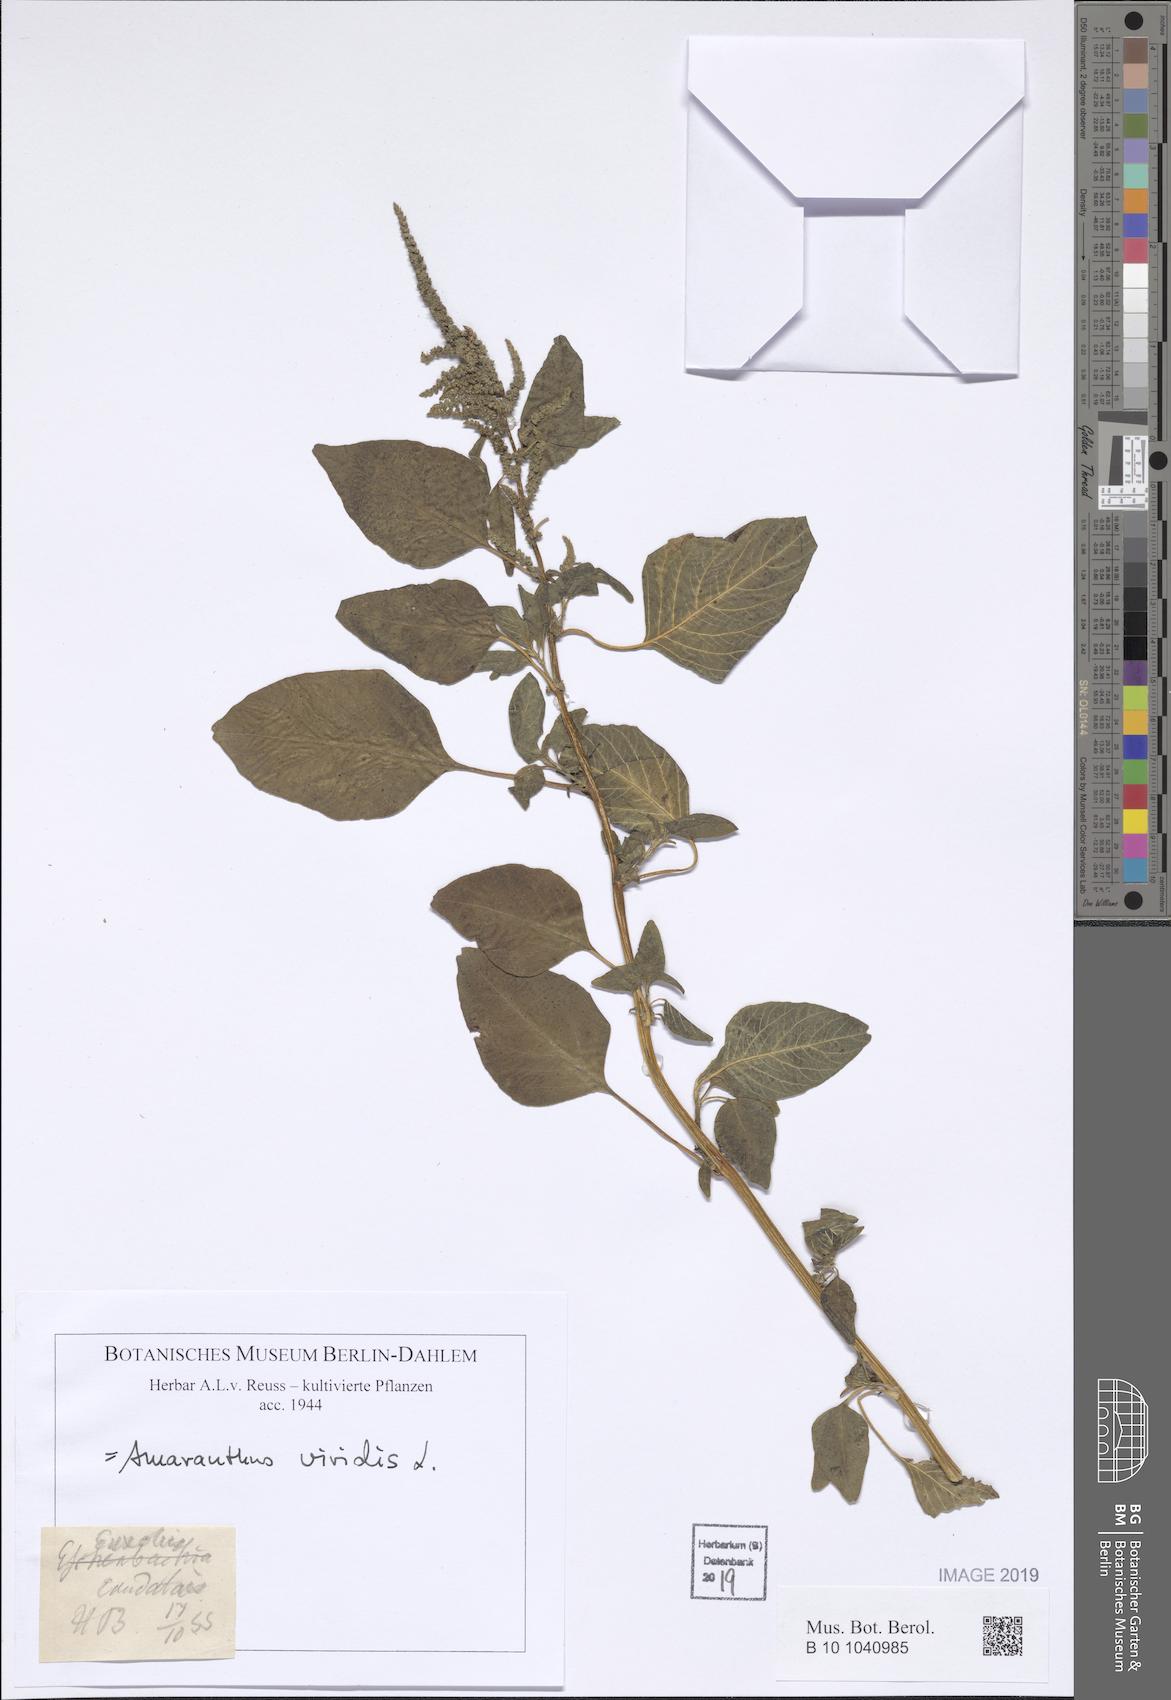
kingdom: Plantae
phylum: Tracheophyta
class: Magnoliopsida
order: Caryophyllales
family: Amaranthaceae
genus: Amaranthus
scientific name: Amaranthus viridis
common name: Slender amaranth
